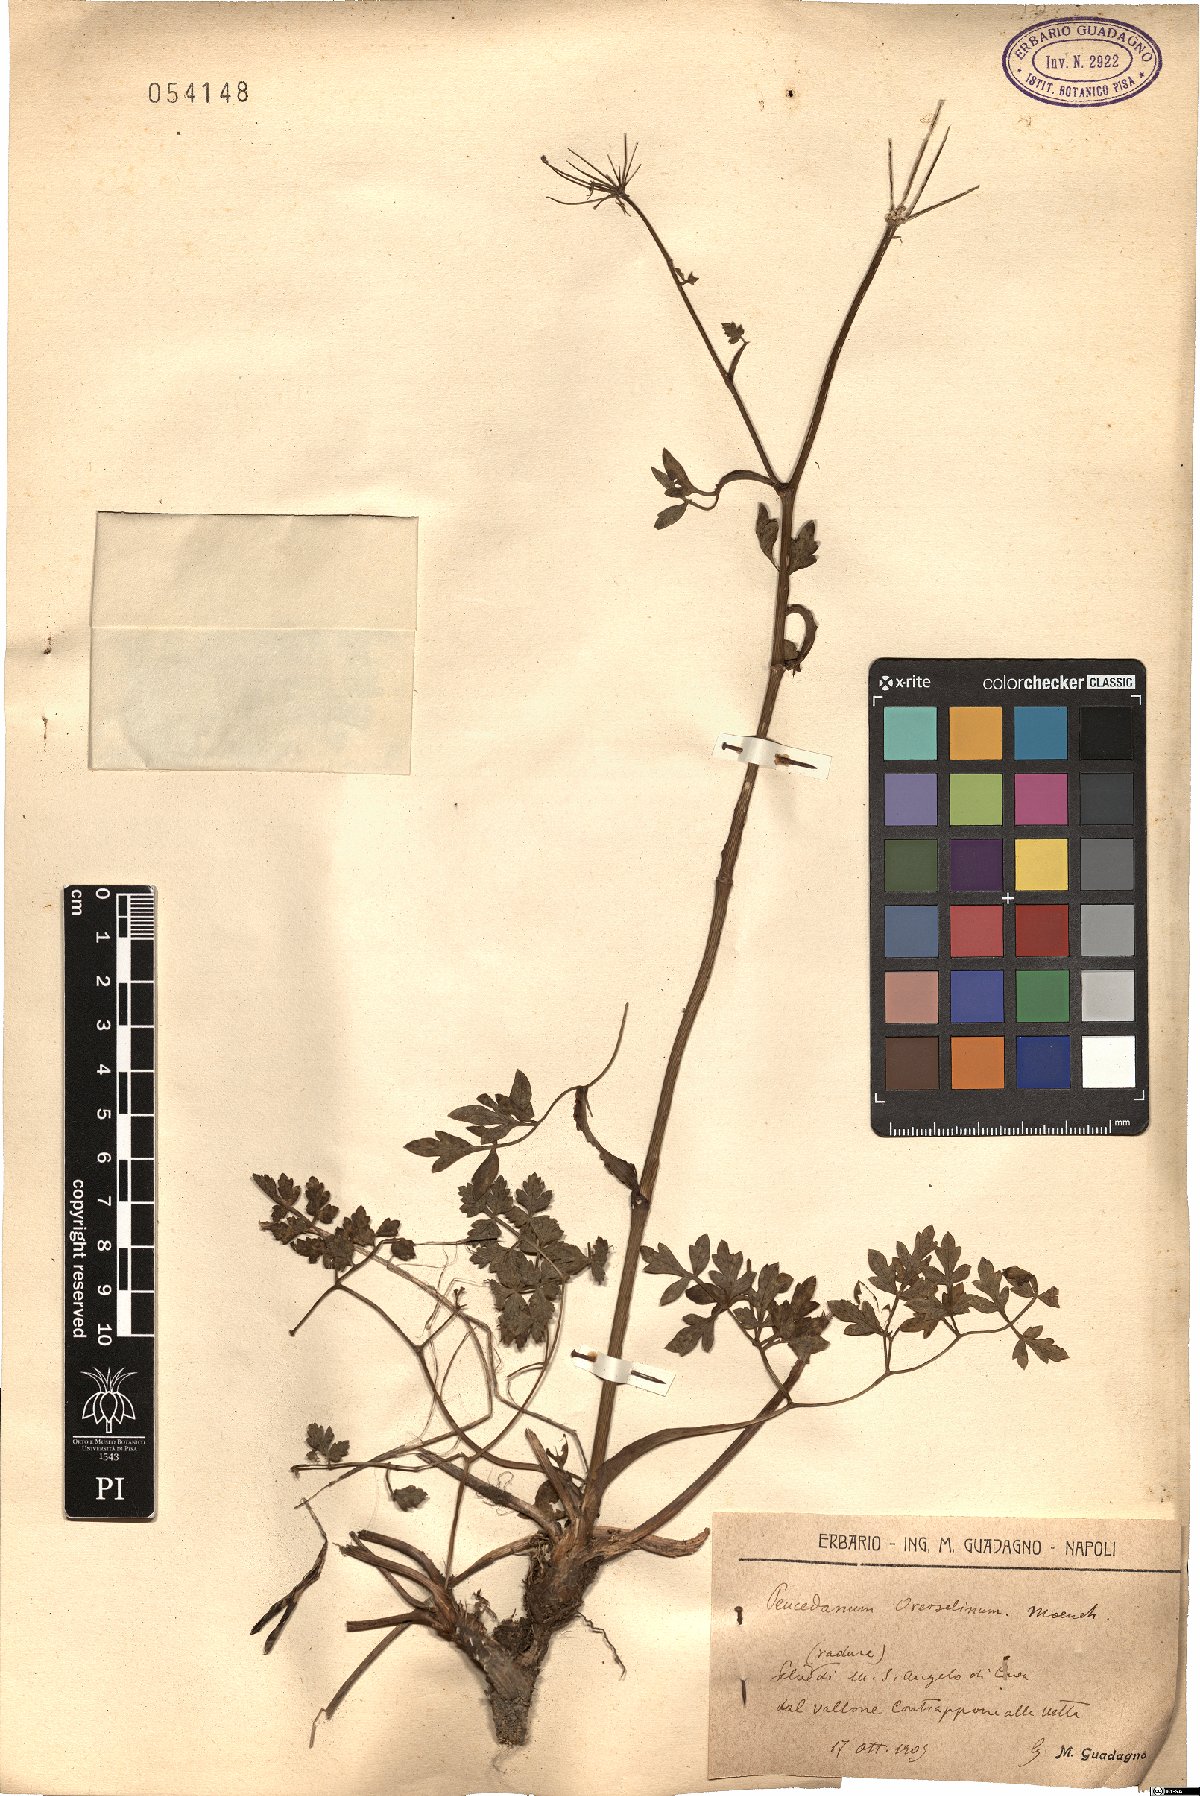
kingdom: Plantae
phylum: Tracheophyta
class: Magnoliopsida
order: Apiales
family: Apiaceae
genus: Oreoselinum
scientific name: Oreoselinum nigrum
